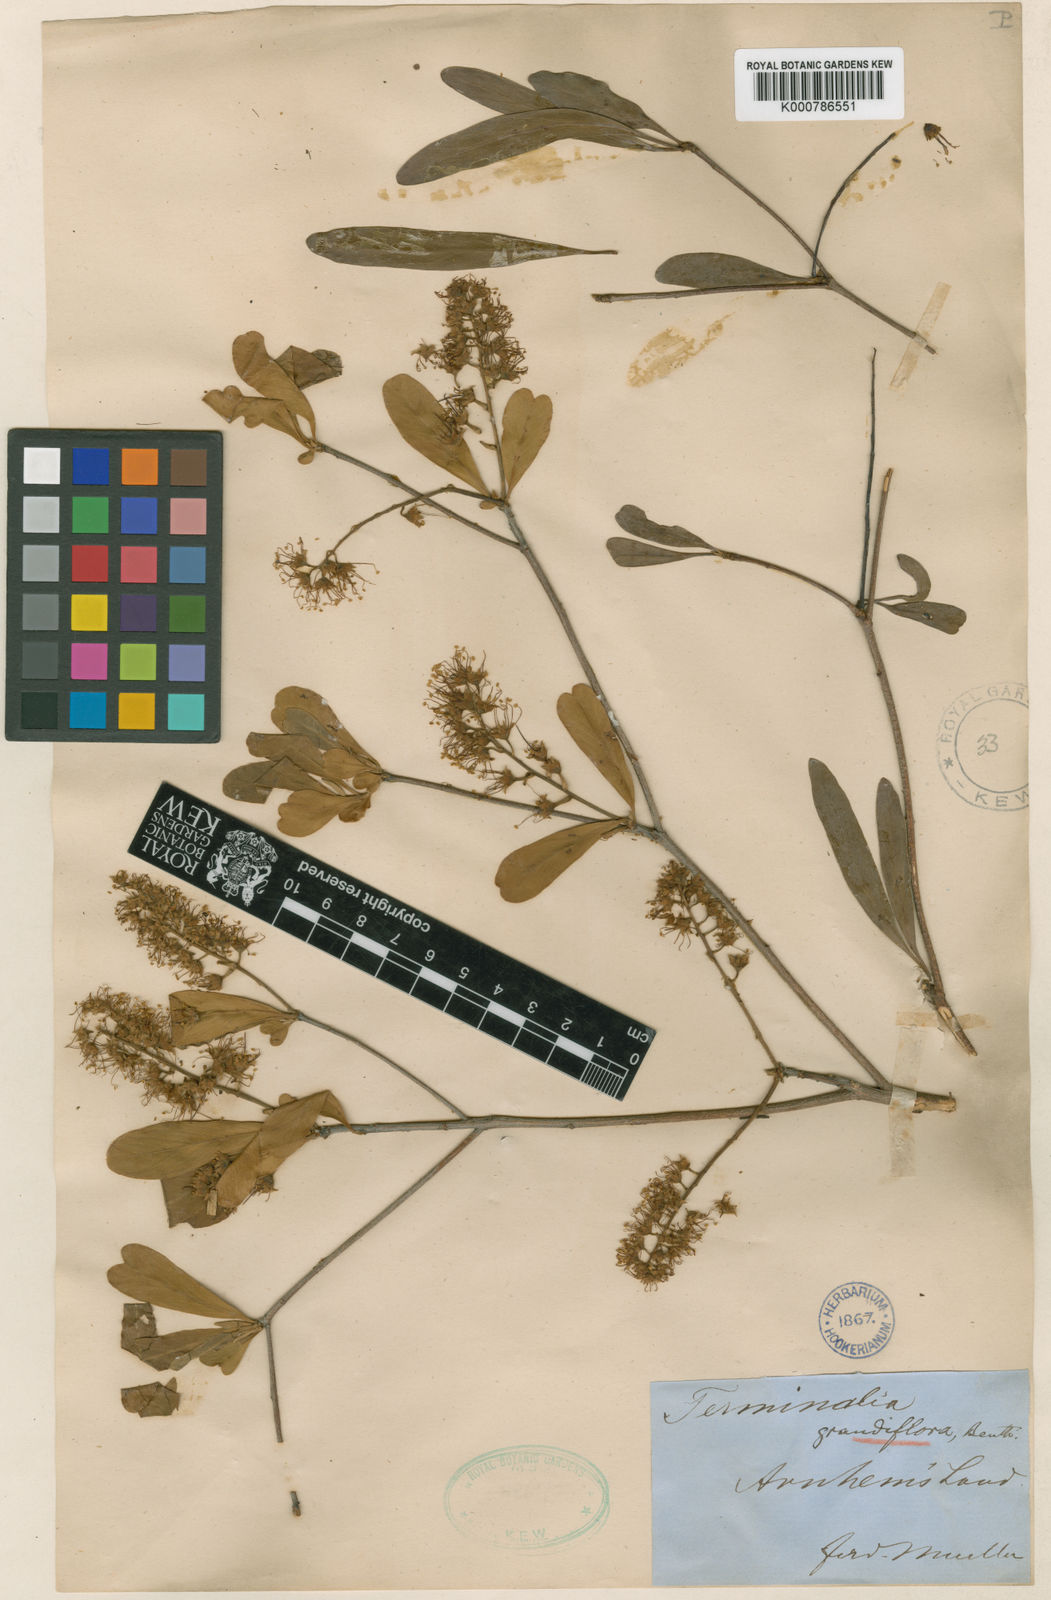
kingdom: Plantae
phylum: Tracheophyta
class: Magnoliopsida
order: Myrtales
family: Combretaceae
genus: Terminalia
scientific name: Terminalia grandiflora
